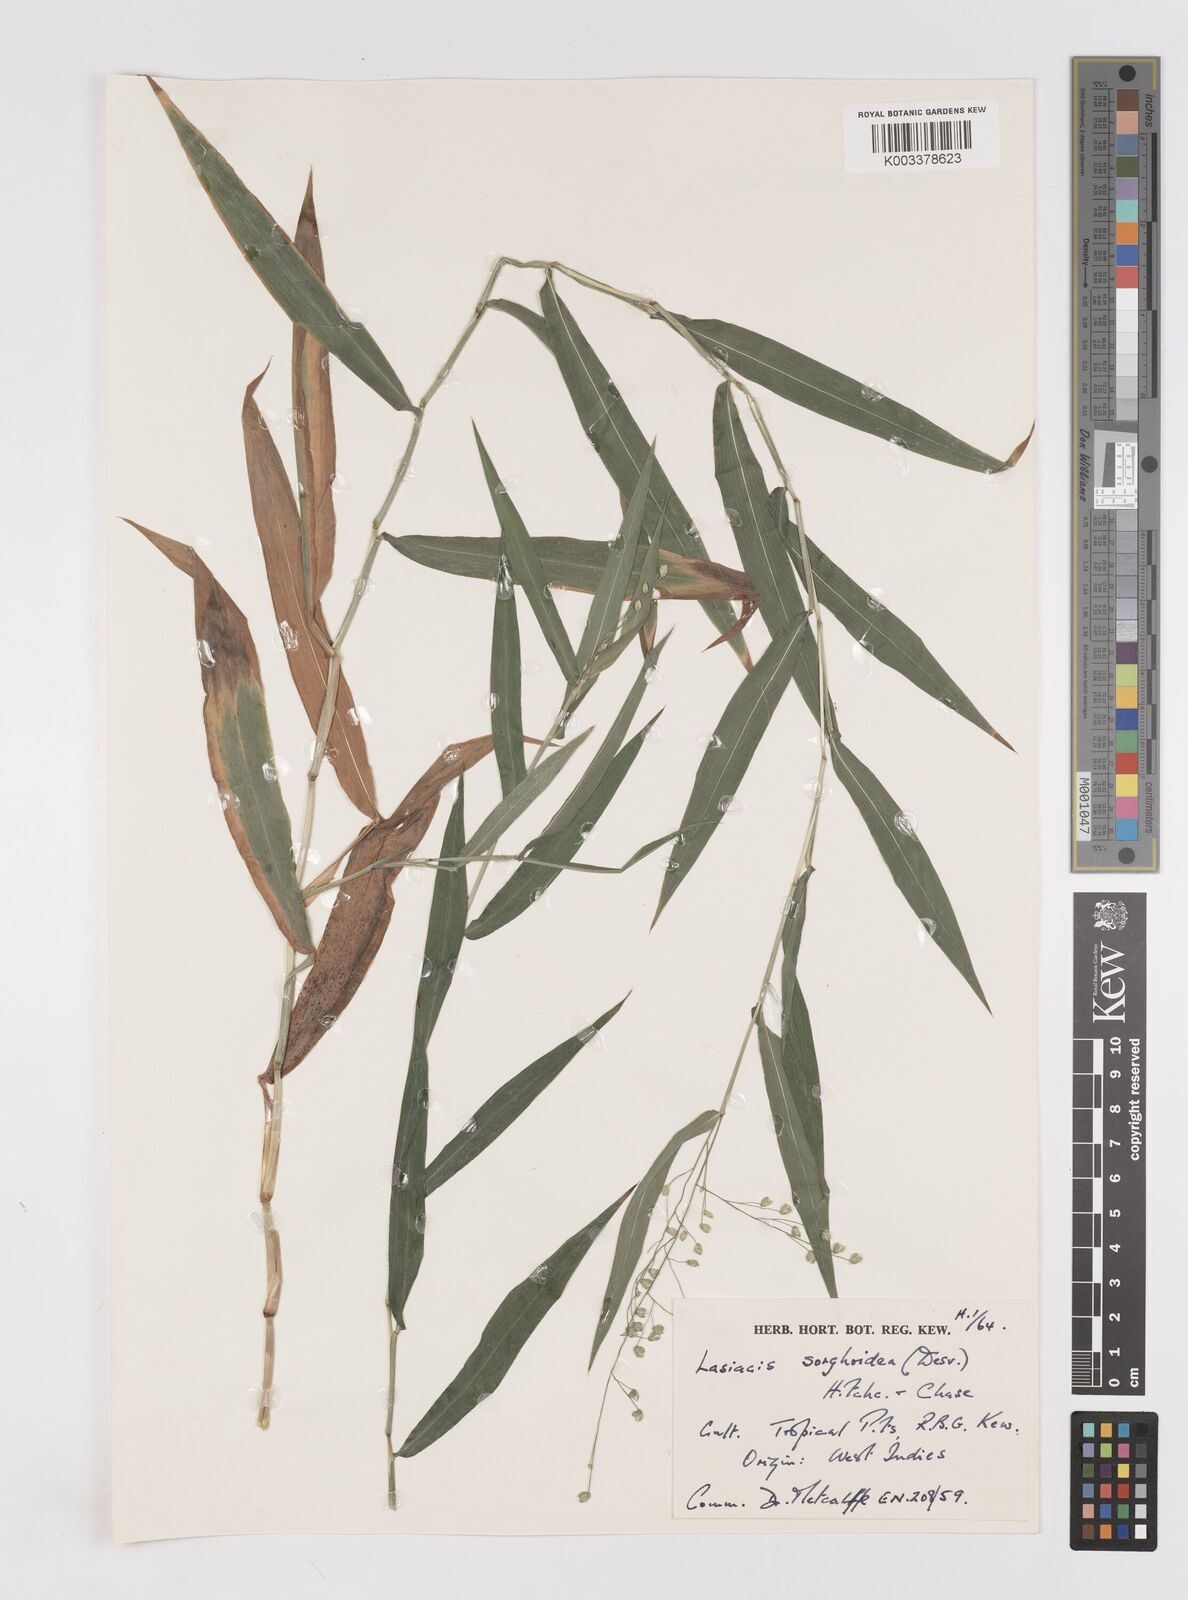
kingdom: Plantae
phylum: Tracheophyta
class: Liliopsida
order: Poales
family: Poaceae
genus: Lasiacis
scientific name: Lasiacis maculata
